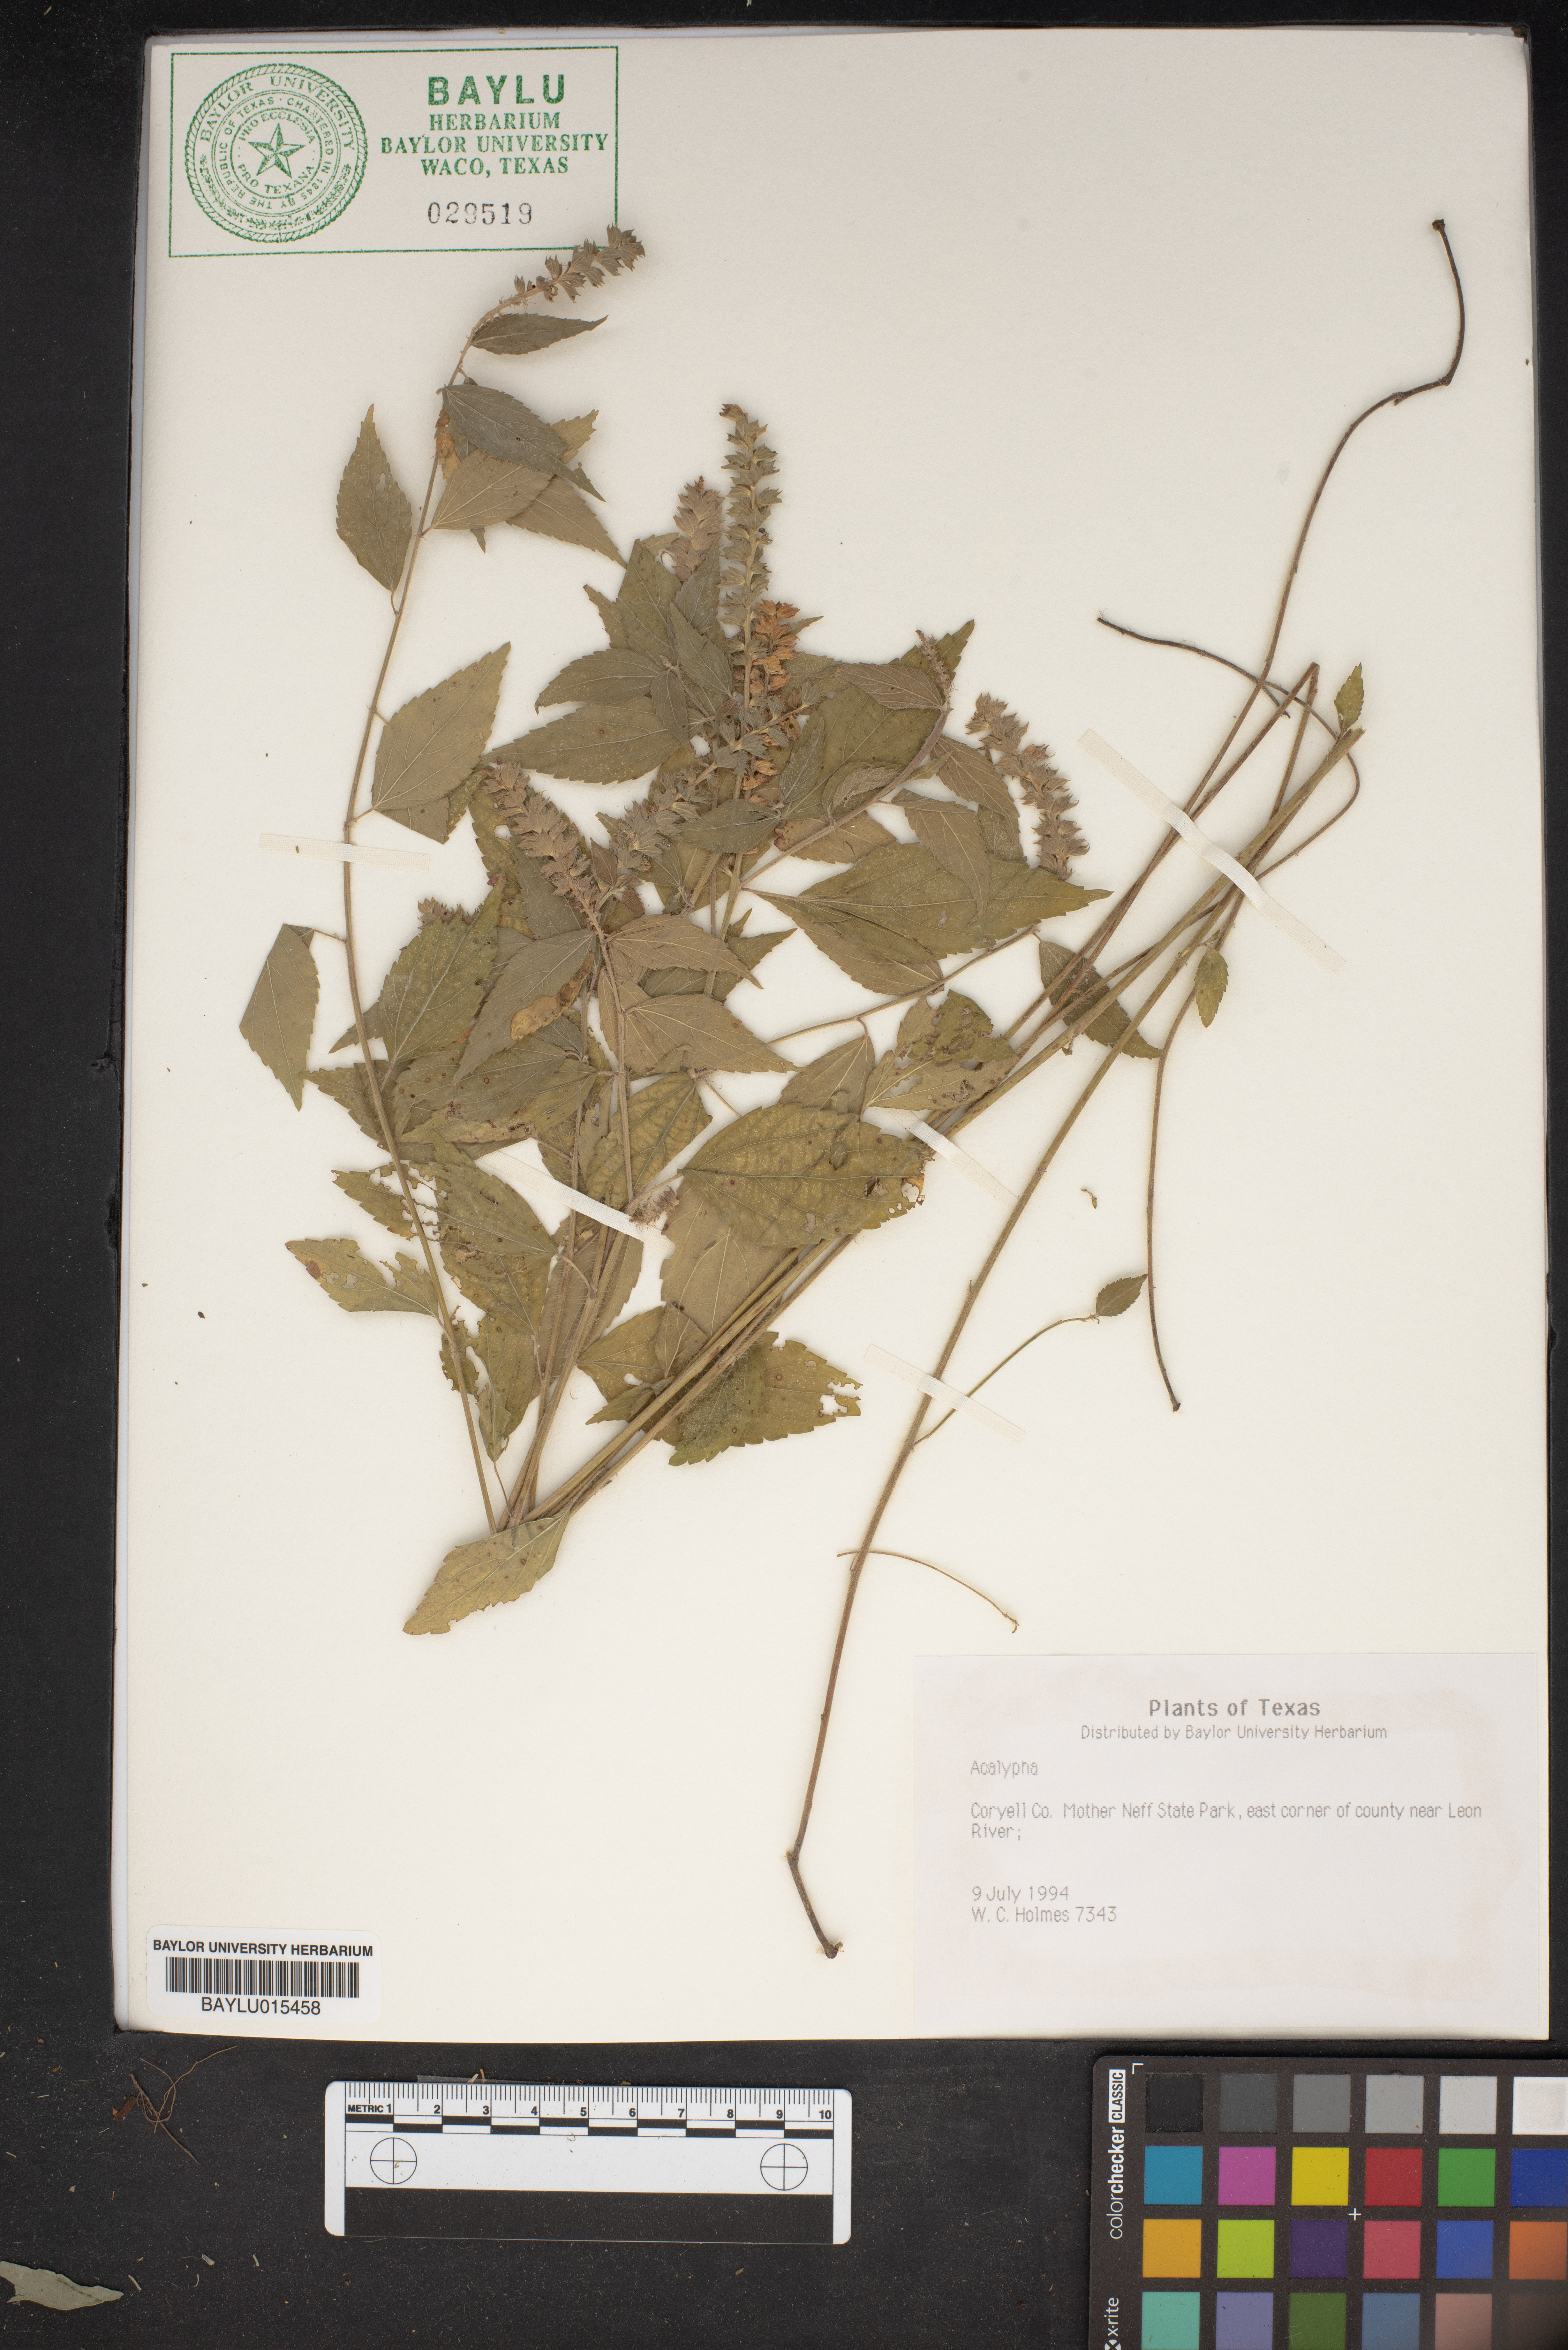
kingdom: Plantae
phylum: Tracheophyta
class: Magnoliopsida
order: Malpighiales
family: Euphorbiaceae
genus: Acalypha
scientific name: Acalypha
